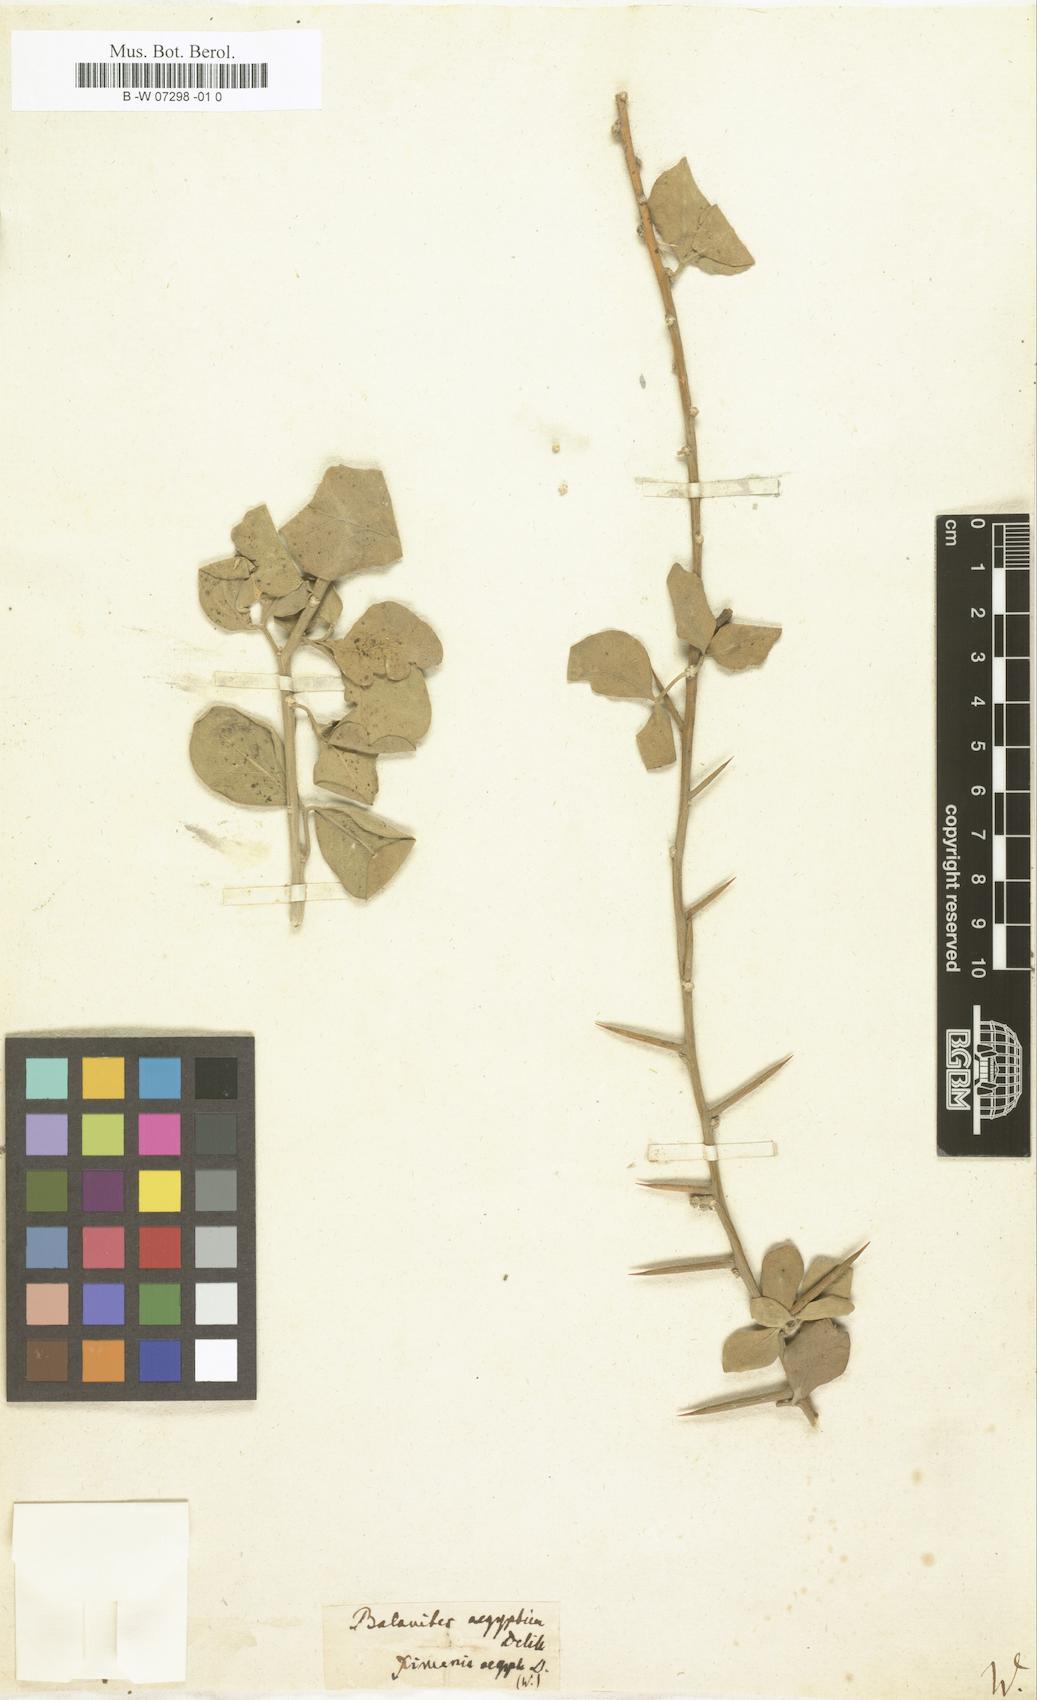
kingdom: Plantae
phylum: Tracheophyta
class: Magnoliopsida
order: Santalales
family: Ximeniaceae
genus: Ximenia
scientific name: Ximenia aegyptiaca
